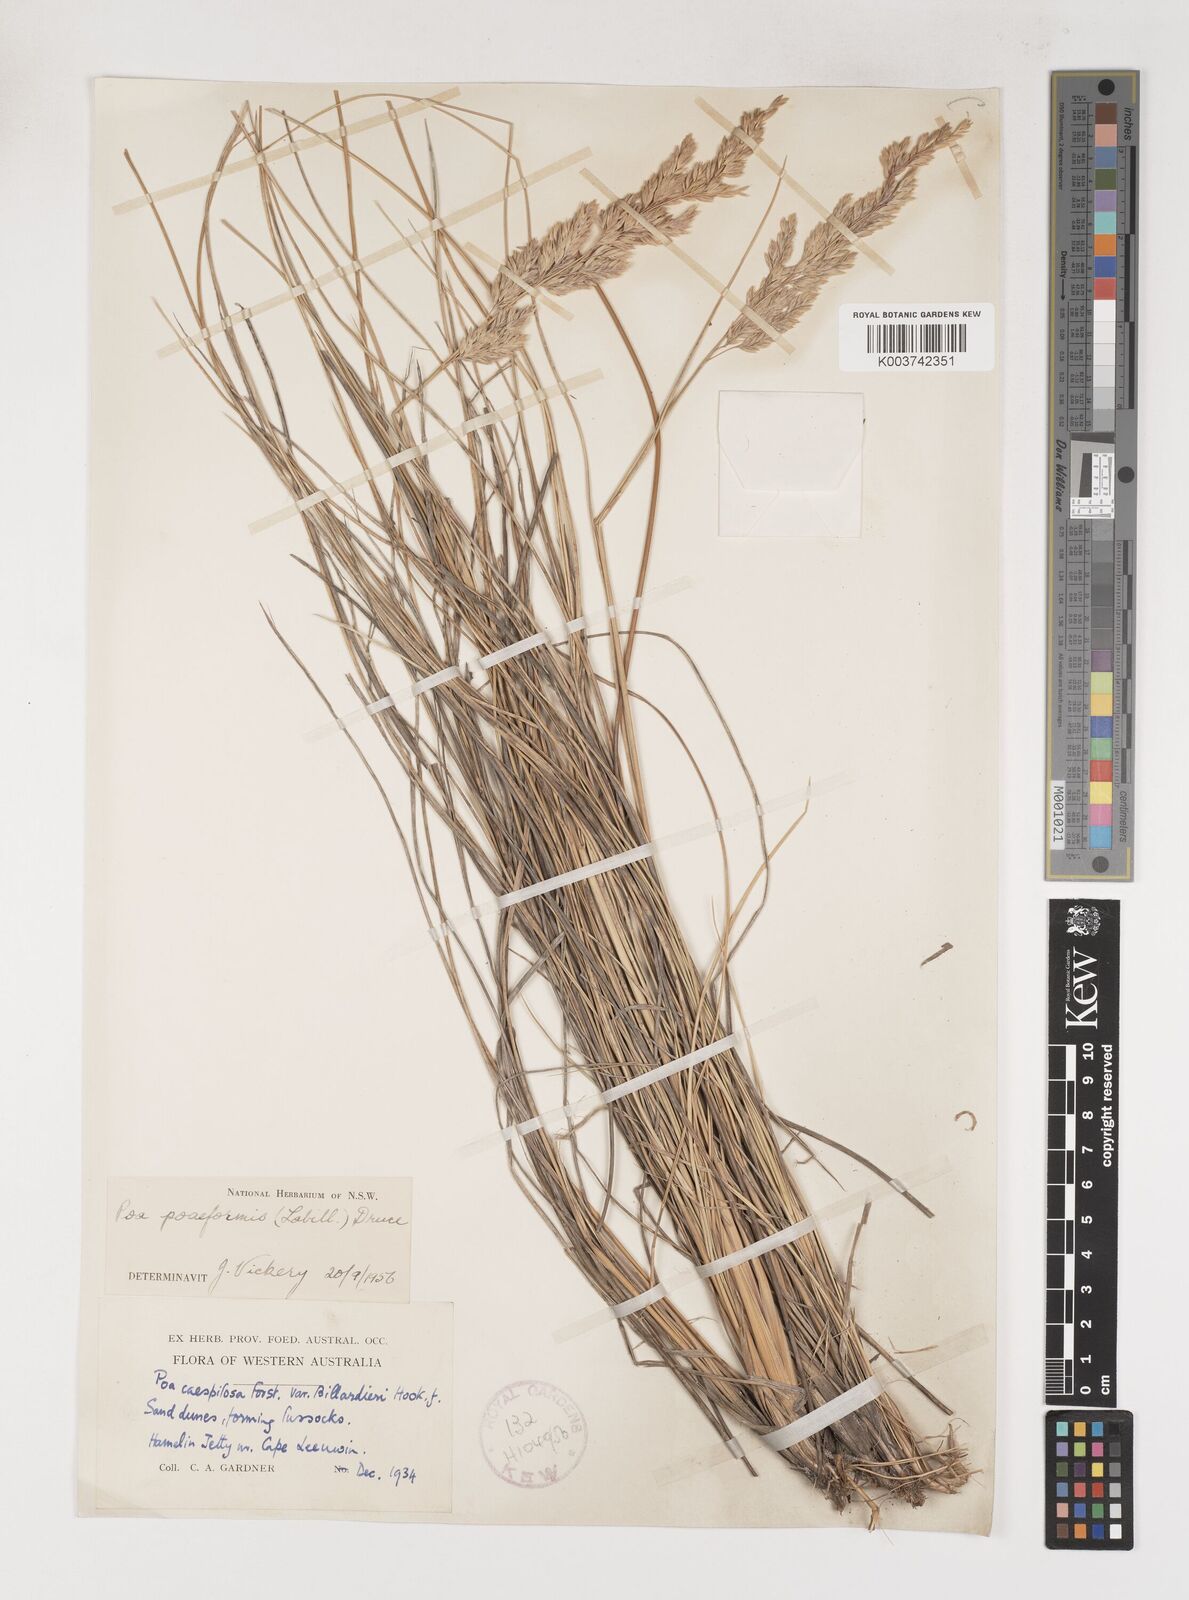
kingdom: Plantae
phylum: Tracheophyta
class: Liliopsida
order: Poales
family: Poaceae
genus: Poa
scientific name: Poa poiformis
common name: Tussock poa
